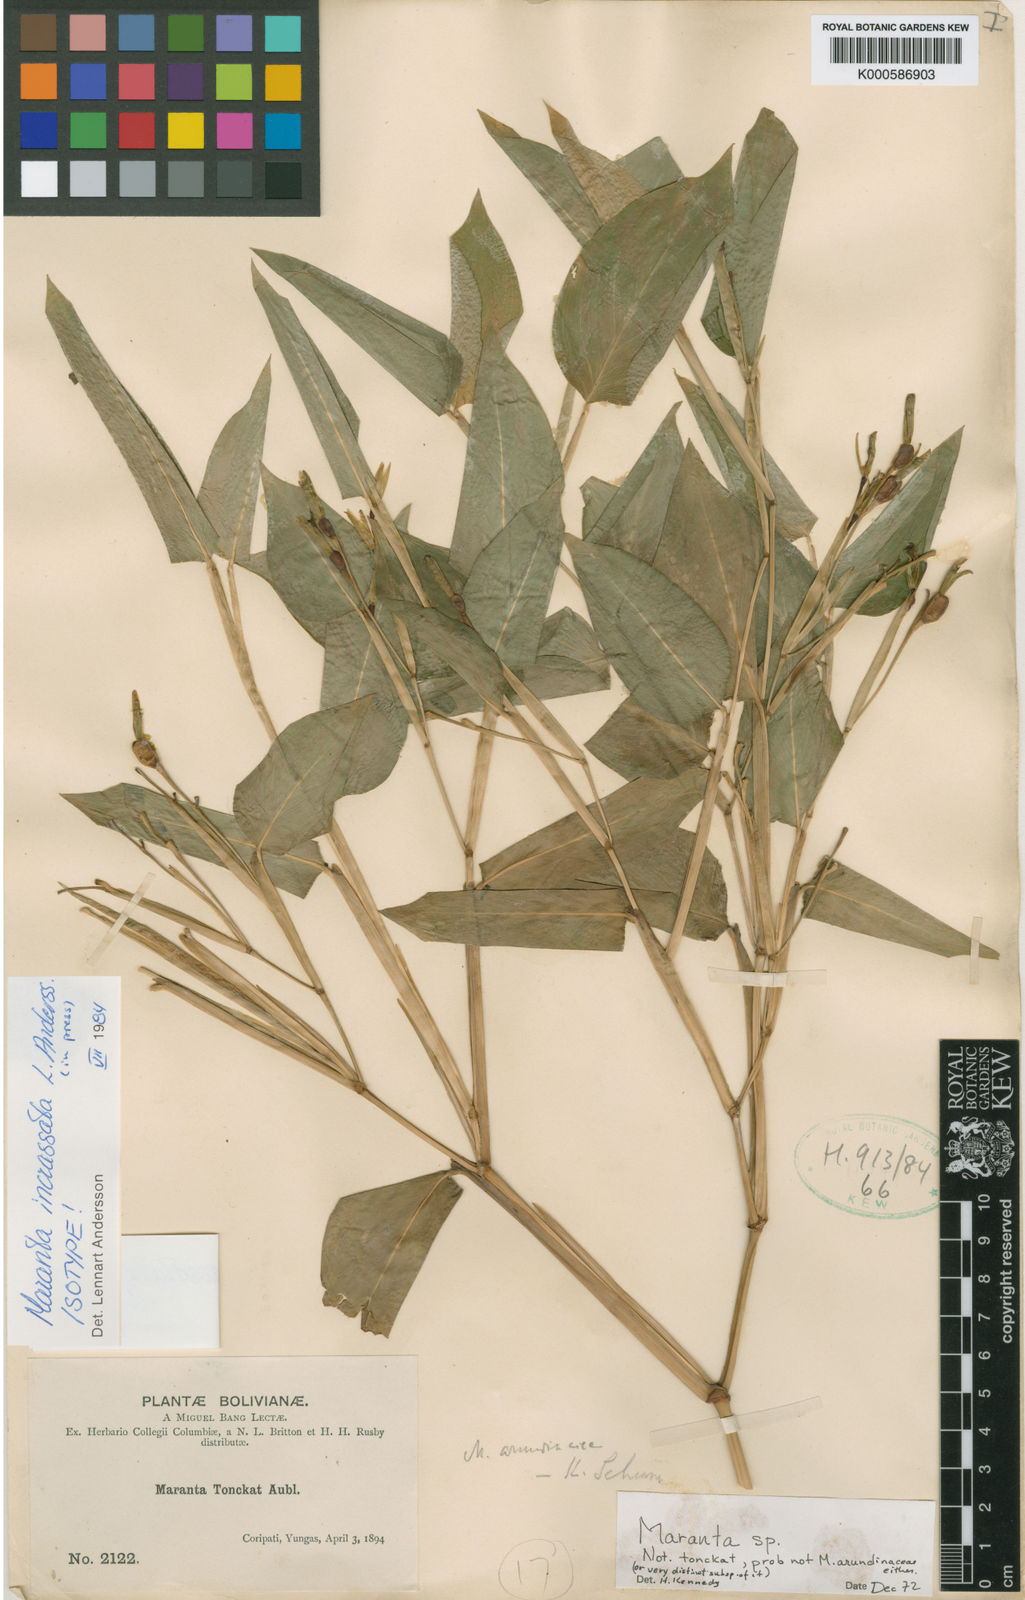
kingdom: Plantae
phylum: Tracheophyta
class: Liliopsida
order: Zingiberales
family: Marantaceae
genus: Maranta
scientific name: Maranta incrassata
